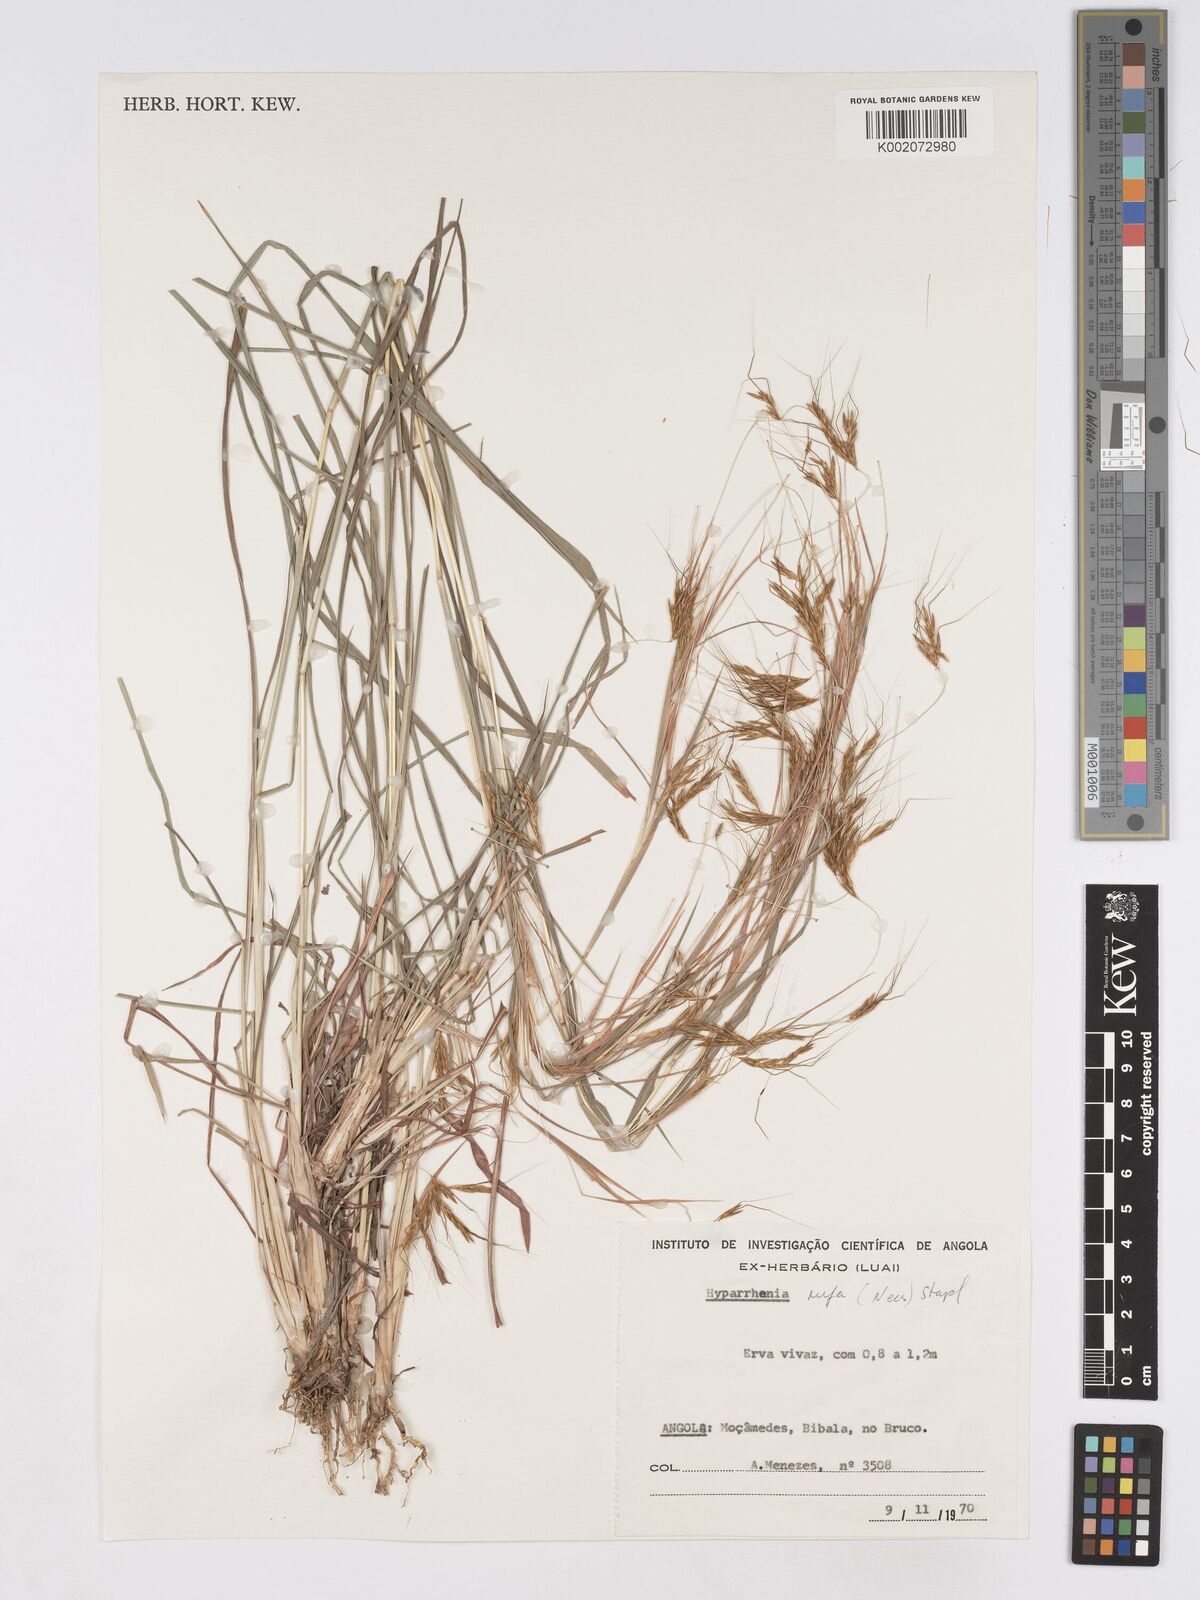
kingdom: Plantae
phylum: Tracheophyta
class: Liliopsida
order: Poales
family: Poaceae
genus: Hyparrhenia
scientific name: Hyparrhenia rufa
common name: Jaraguagrass
